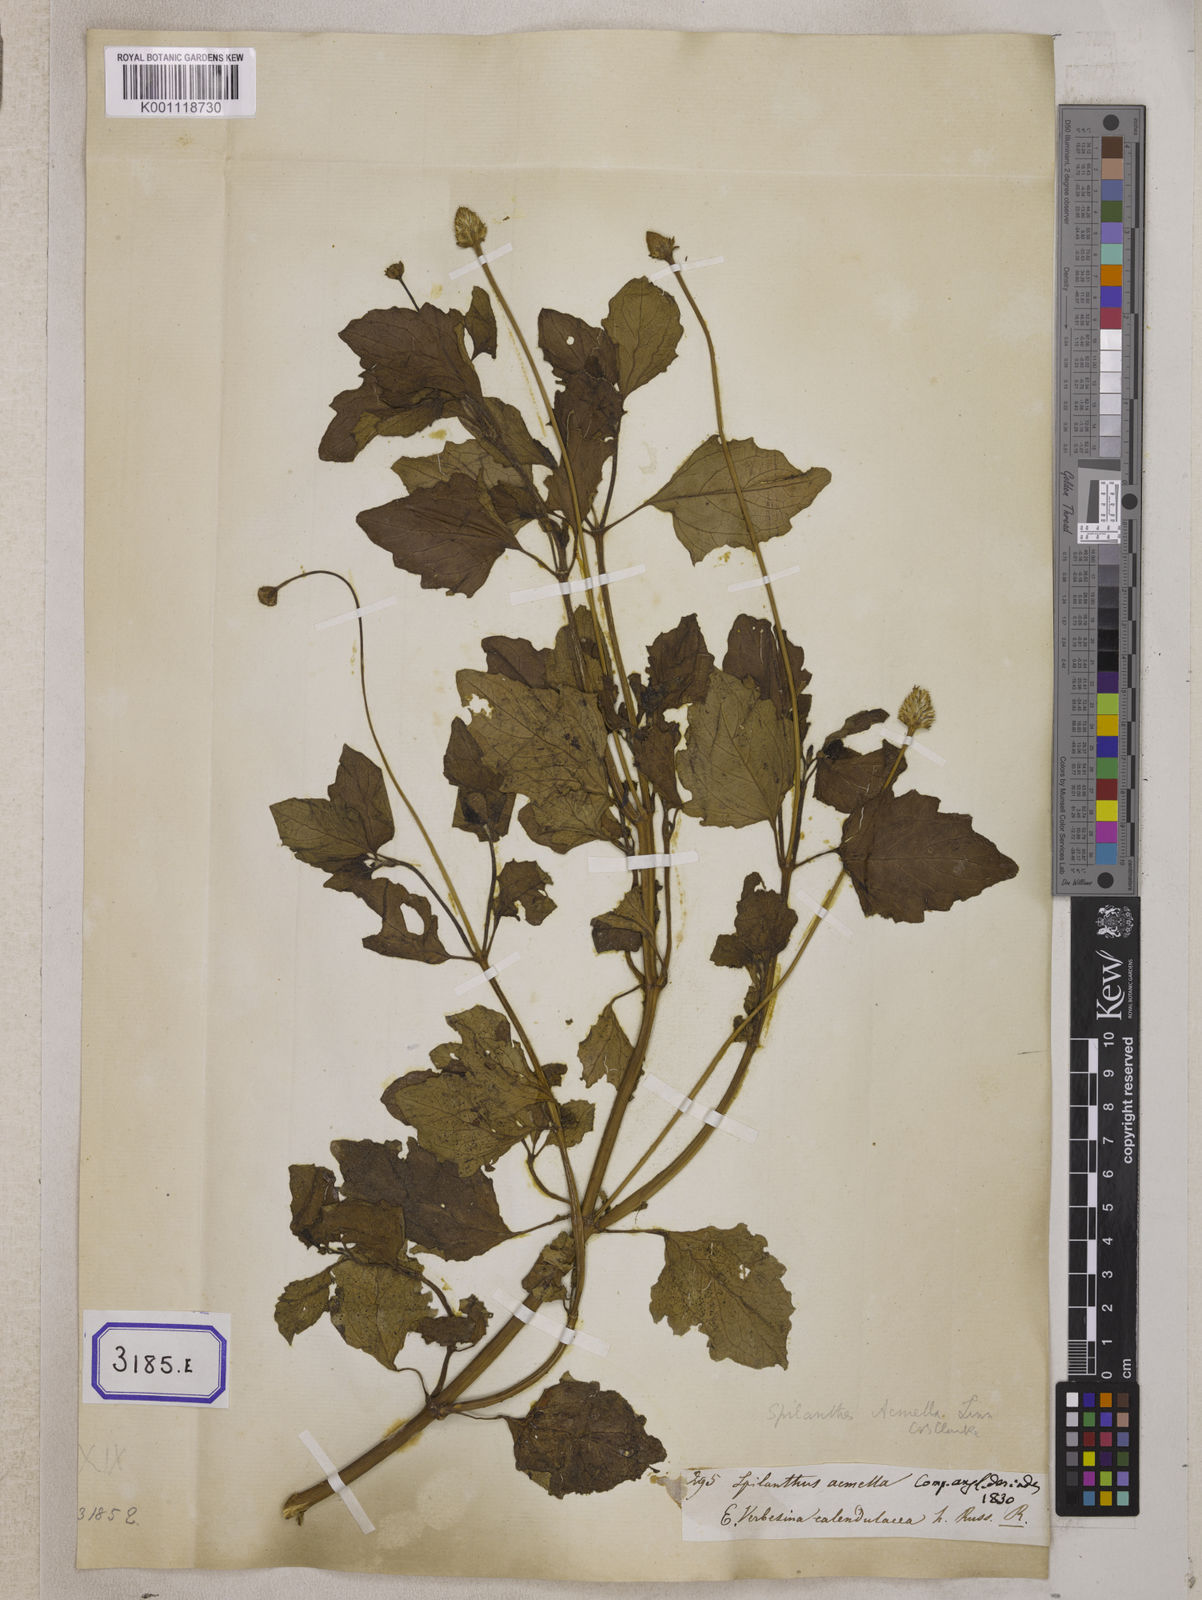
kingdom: Plantae
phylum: Tracheophyta
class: Magnoliopsida
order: Asterales
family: Asteraceae
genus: Blainvillea
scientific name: Blainvillea acmella
